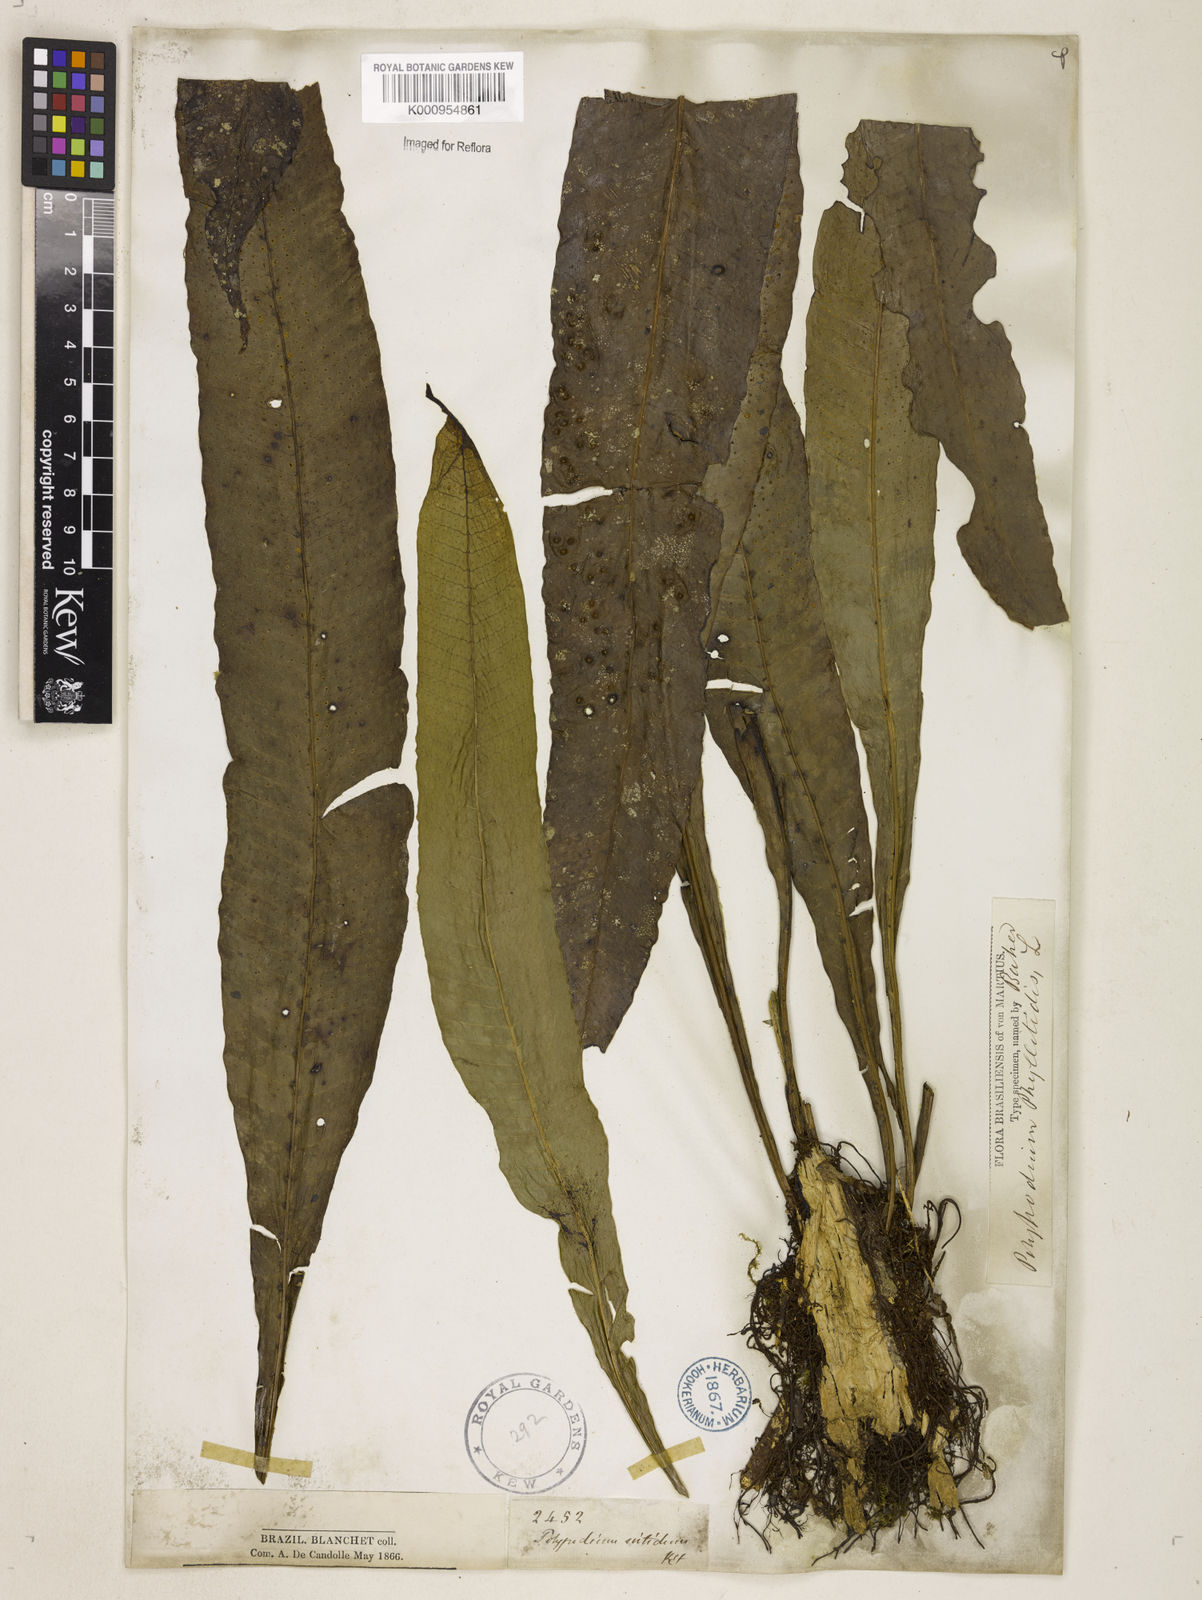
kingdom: Plantae
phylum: Tracheophyta
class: Polypodiopsida
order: Polypodiales
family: Polypodiaceae
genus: Campyloneurum
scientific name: Campyloneurum phyllitidis
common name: Cow-tongue fern
